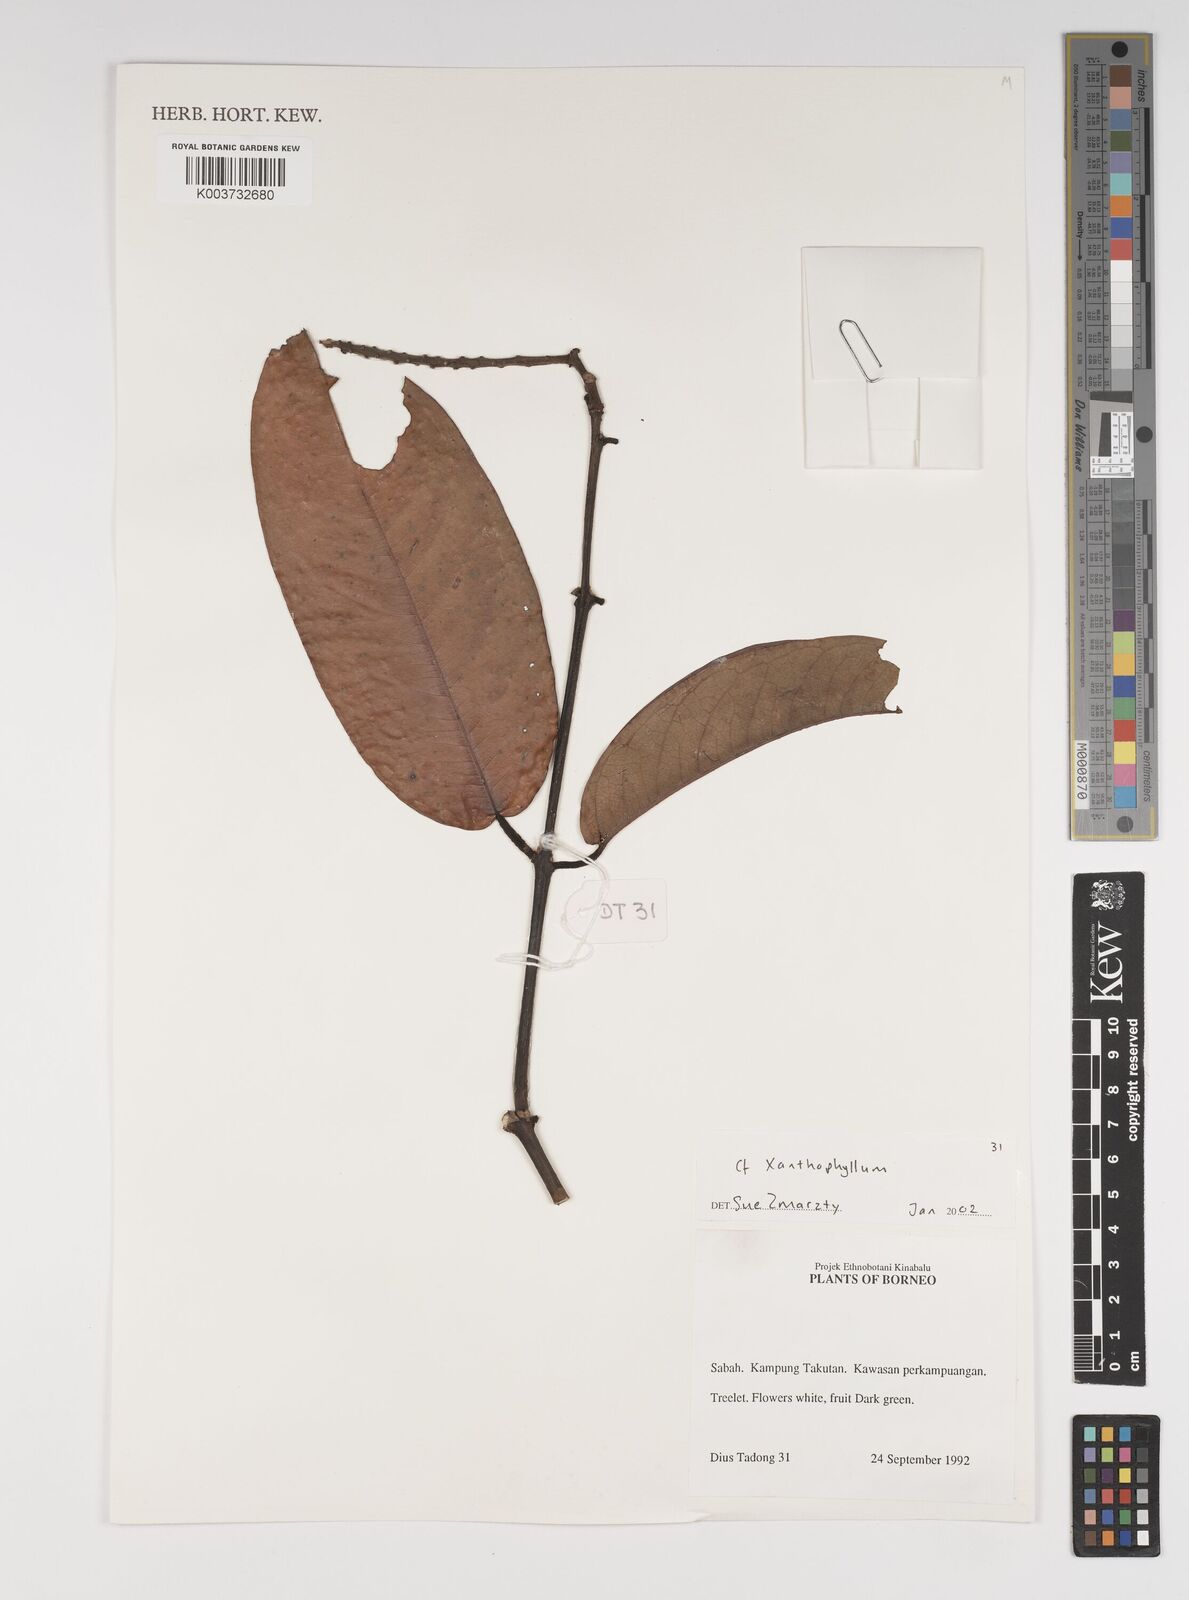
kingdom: Plantae
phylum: Tracheophyta
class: Magnoliopsida
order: Fabales
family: Polygalaceae
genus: Xanthophyllum
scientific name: Xanthophyllum
